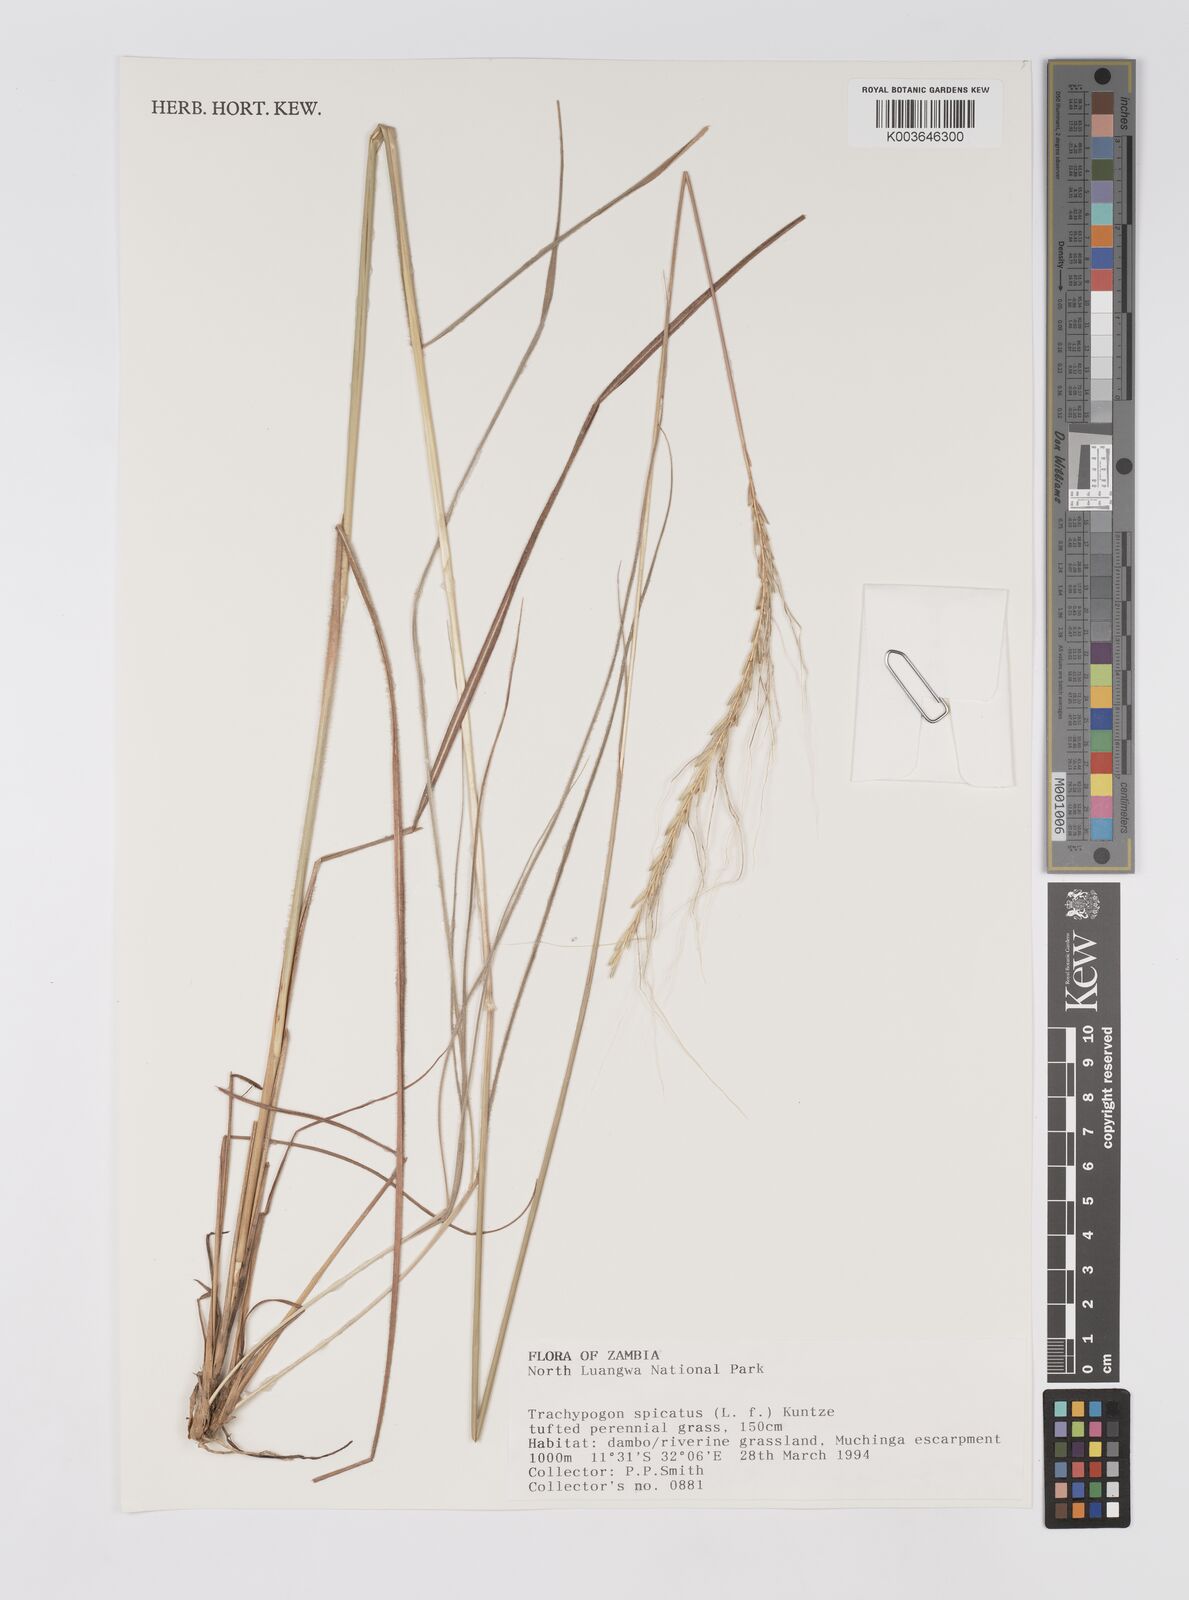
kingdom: Plantae
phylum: Tracheophyta
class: Liliopsida
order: Poales
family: Poaceae
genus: Trachypogon
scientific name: Trachypogon spicatus
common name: Crinkle-awn
